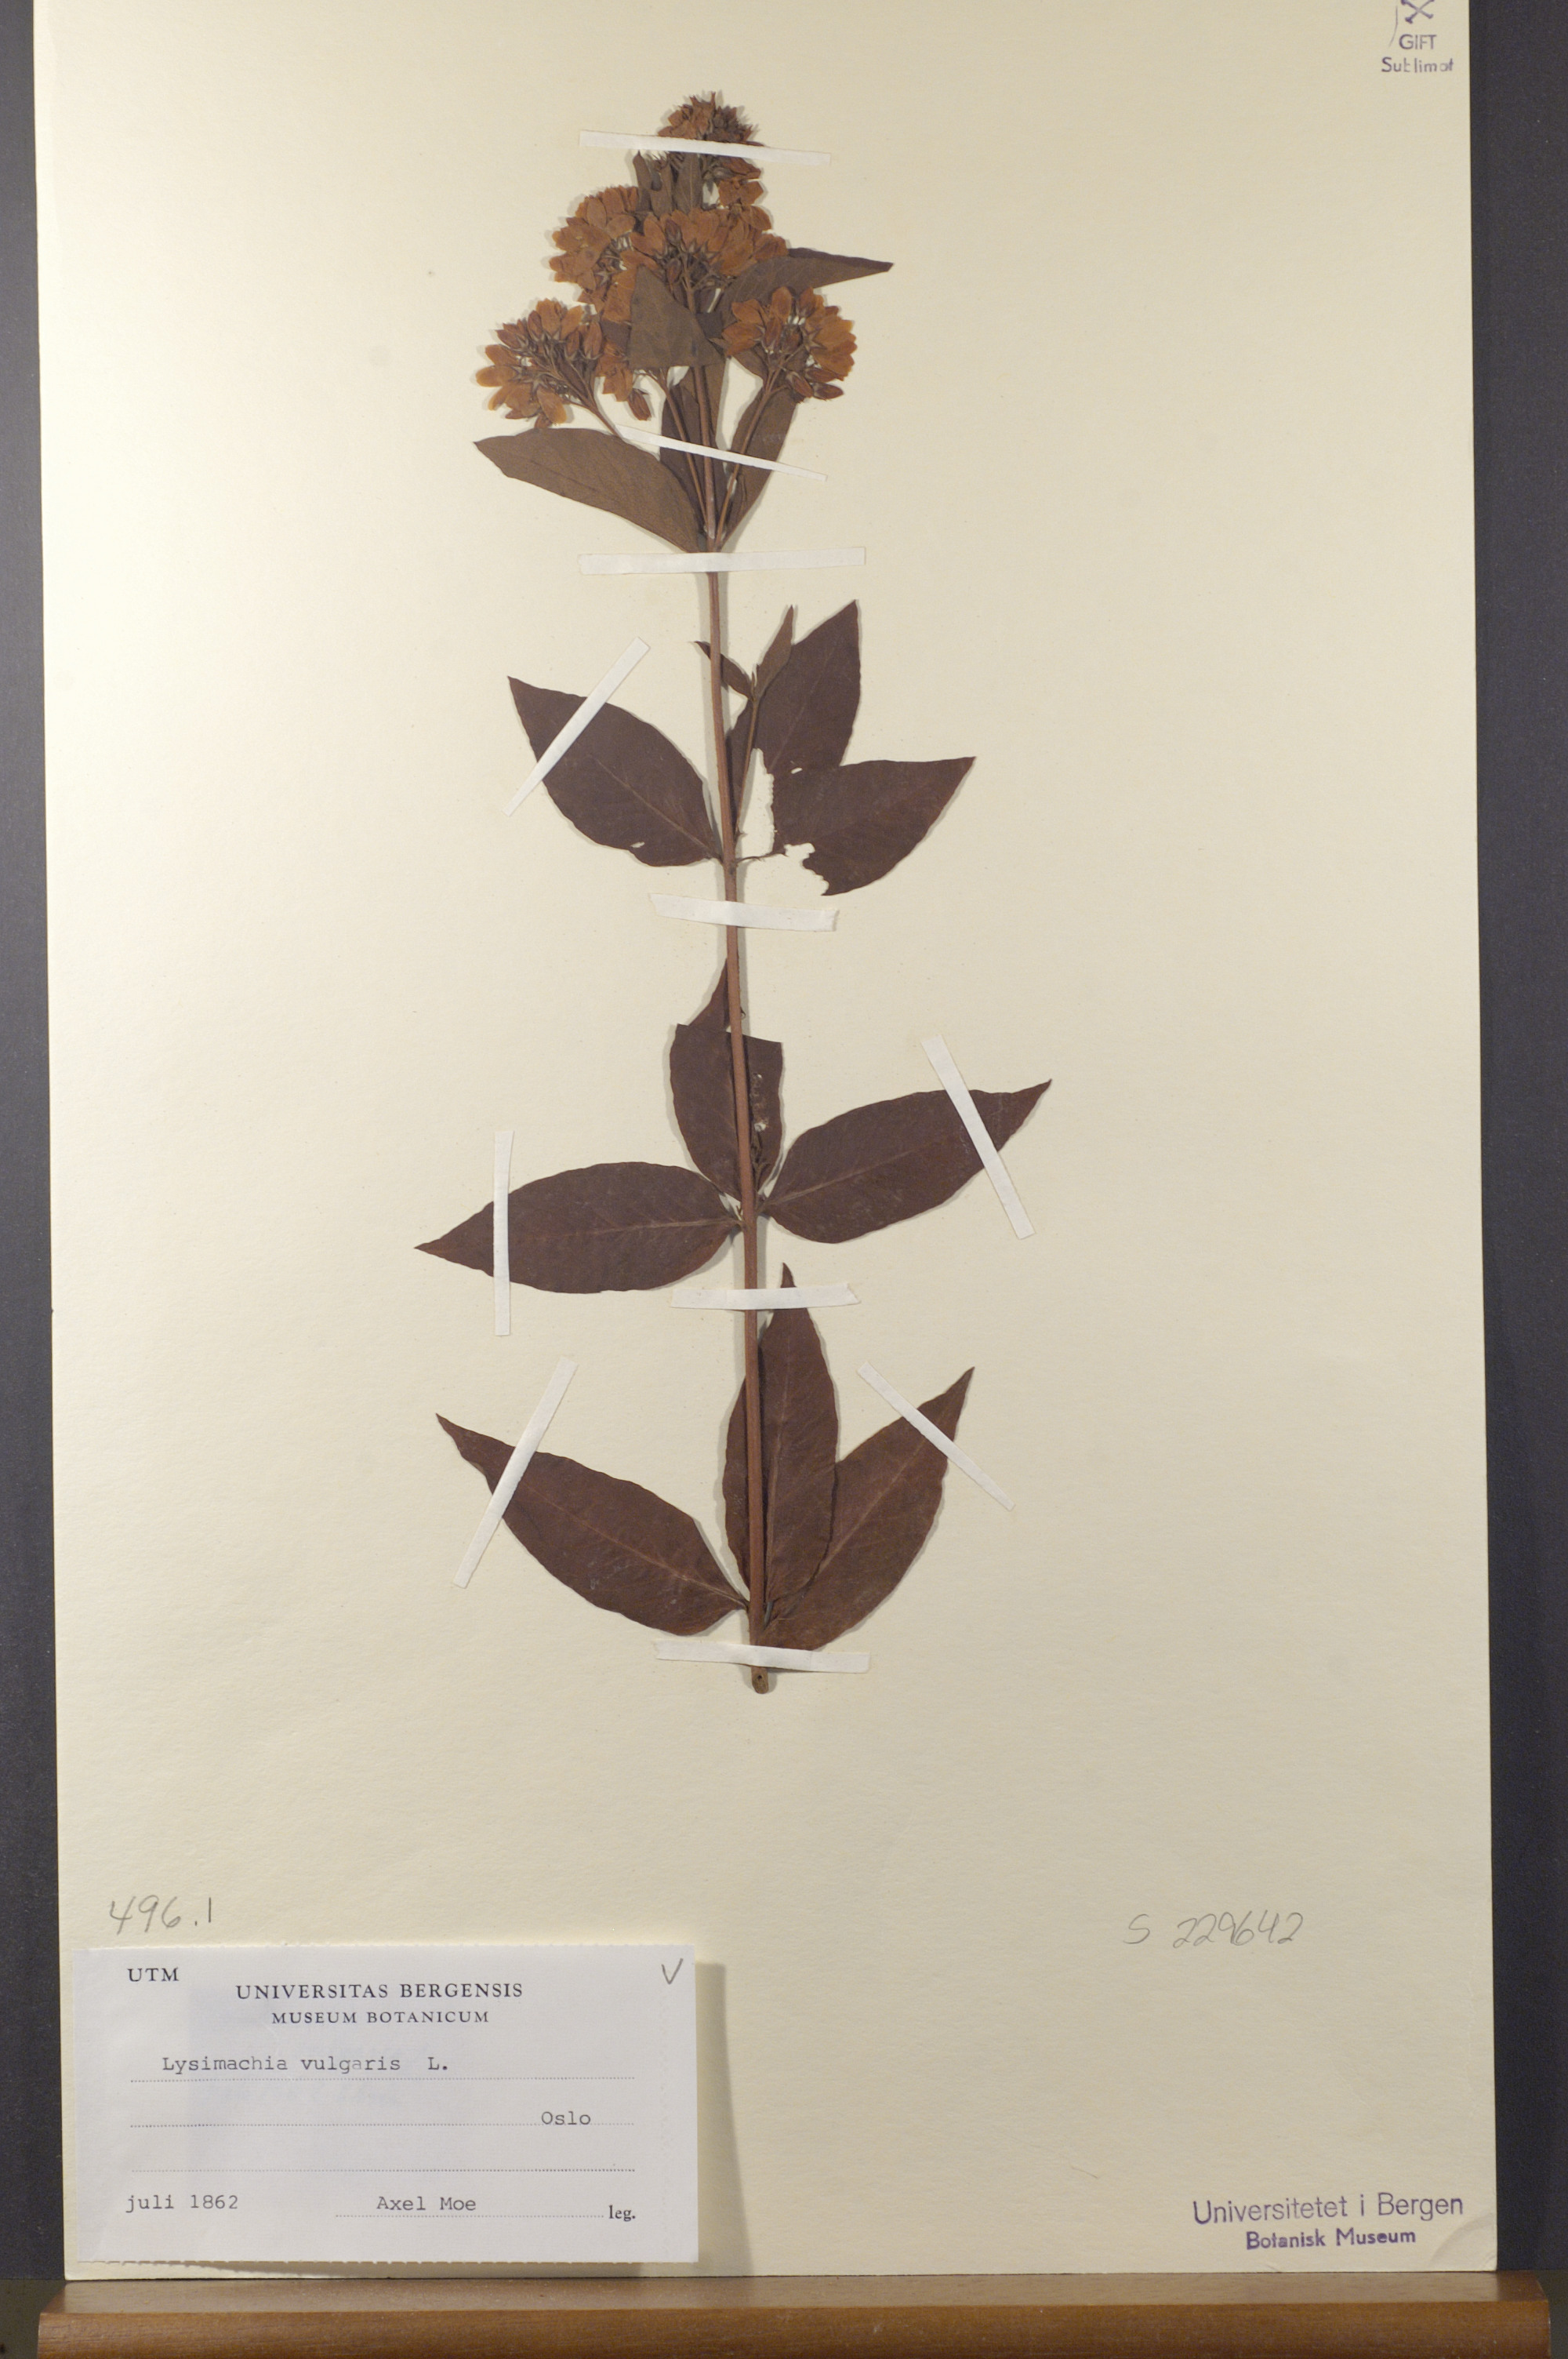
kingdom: Plantae
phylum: Tracheophyta
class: Magnoliopsida
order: Ericales
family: Primulaceae
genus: Lysimachia
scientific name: Lysimachia vulgaris
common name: Yellow loosestrife
